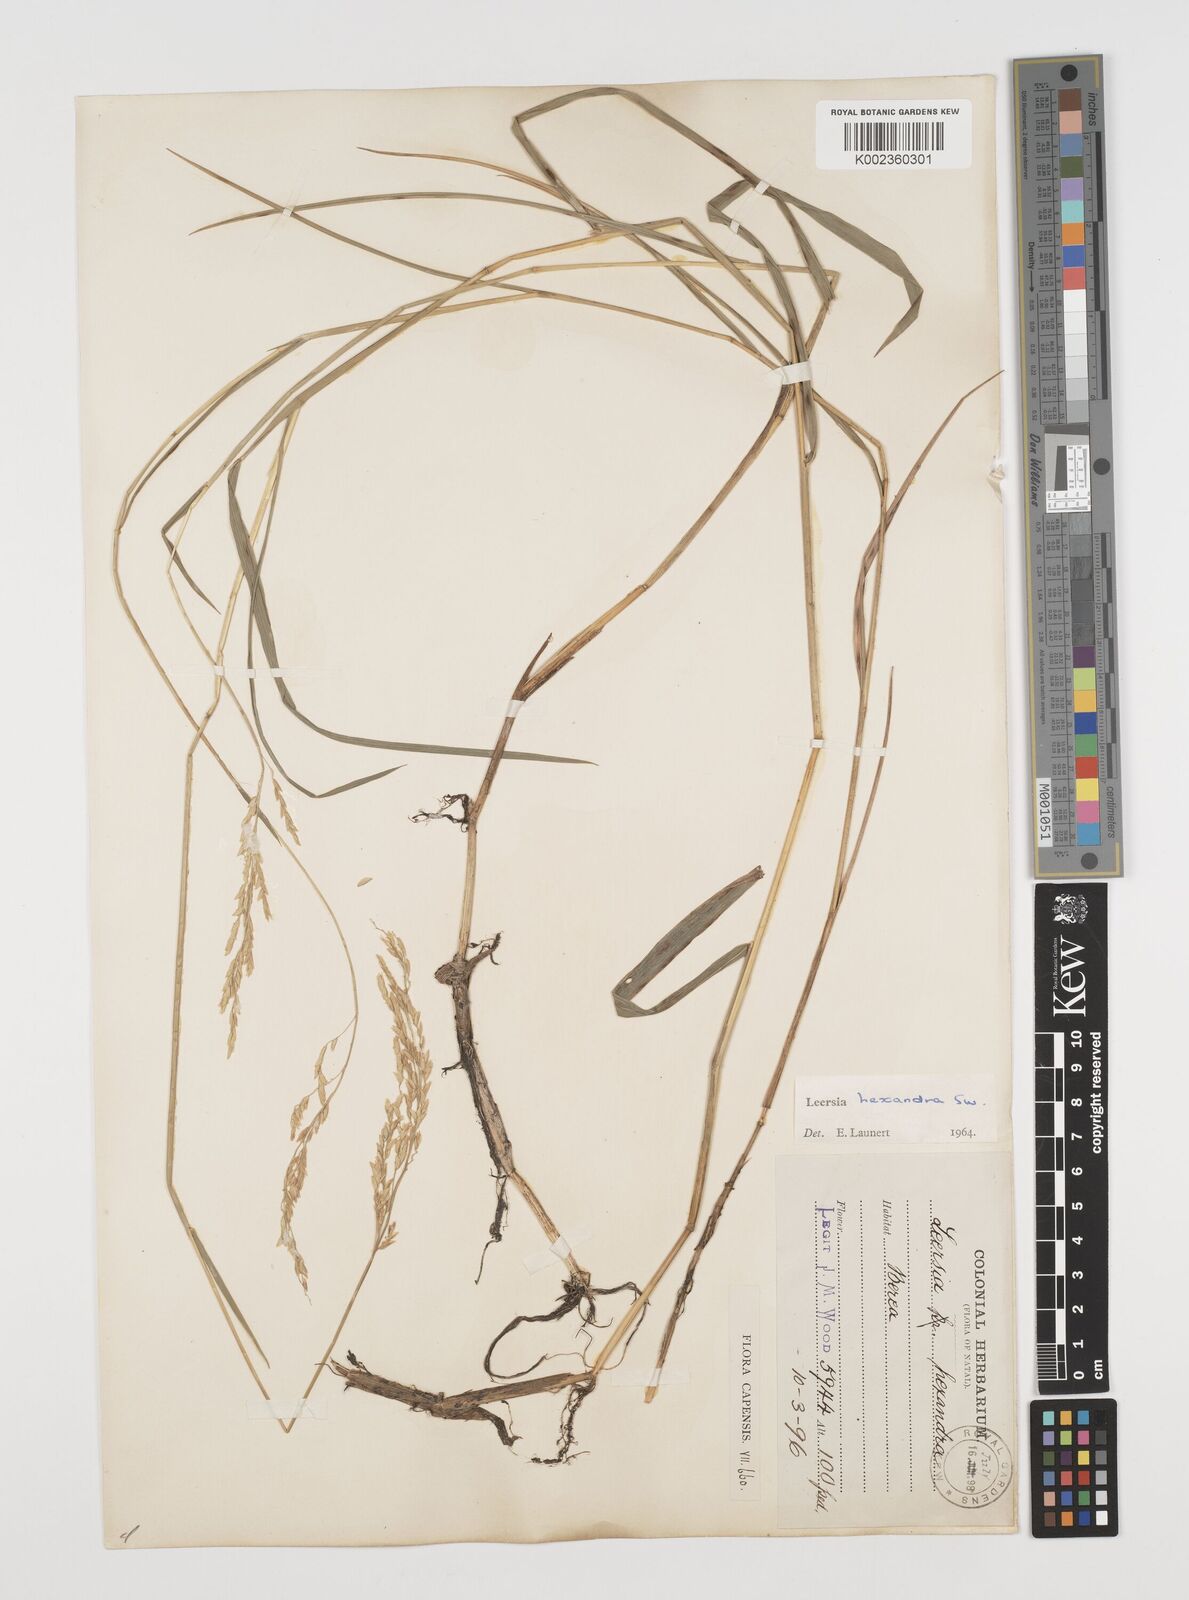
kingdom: Plantae
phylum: Tracheophyta
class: Liliopsida
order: Poales
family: Poaceae
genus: Leersia
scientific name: Leersia hexandra
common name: Southern cut grass
